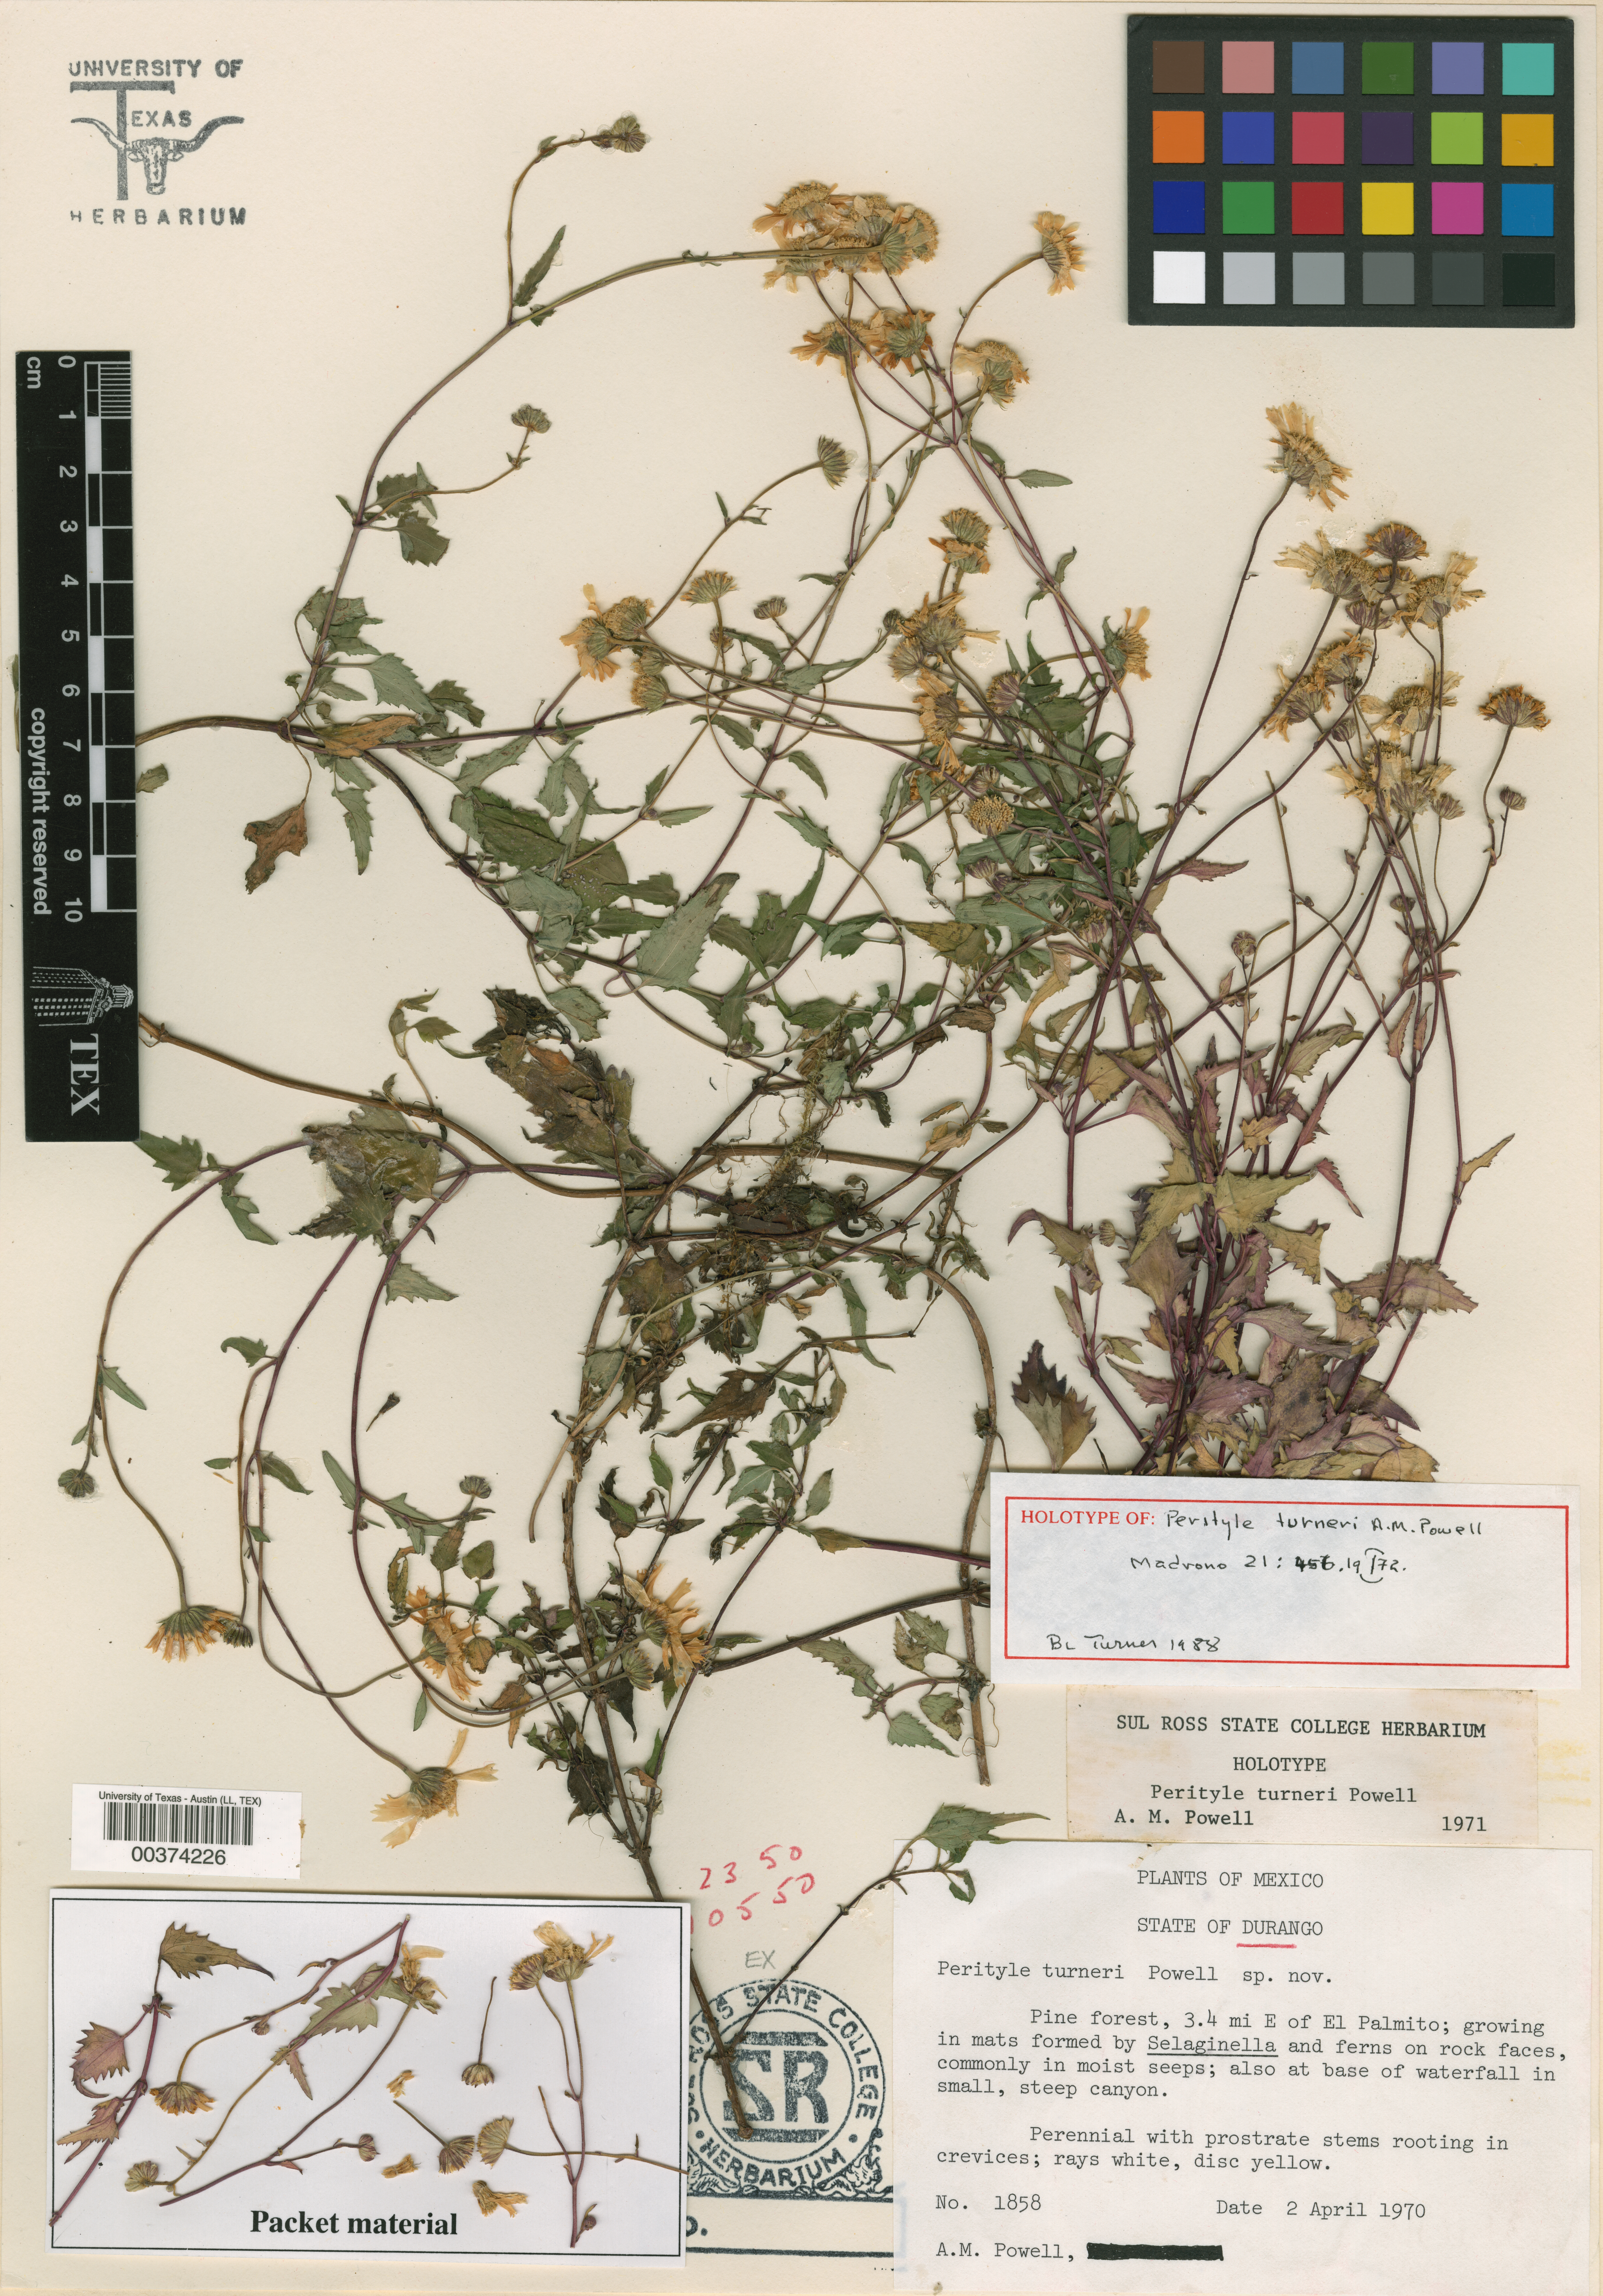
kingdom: Plantae
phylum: Tracheophyta
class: Magnoliopsida
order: Asterales
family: Asteraceae
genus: Galinsogeopsis
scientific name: Galinsogeopsis turneri
